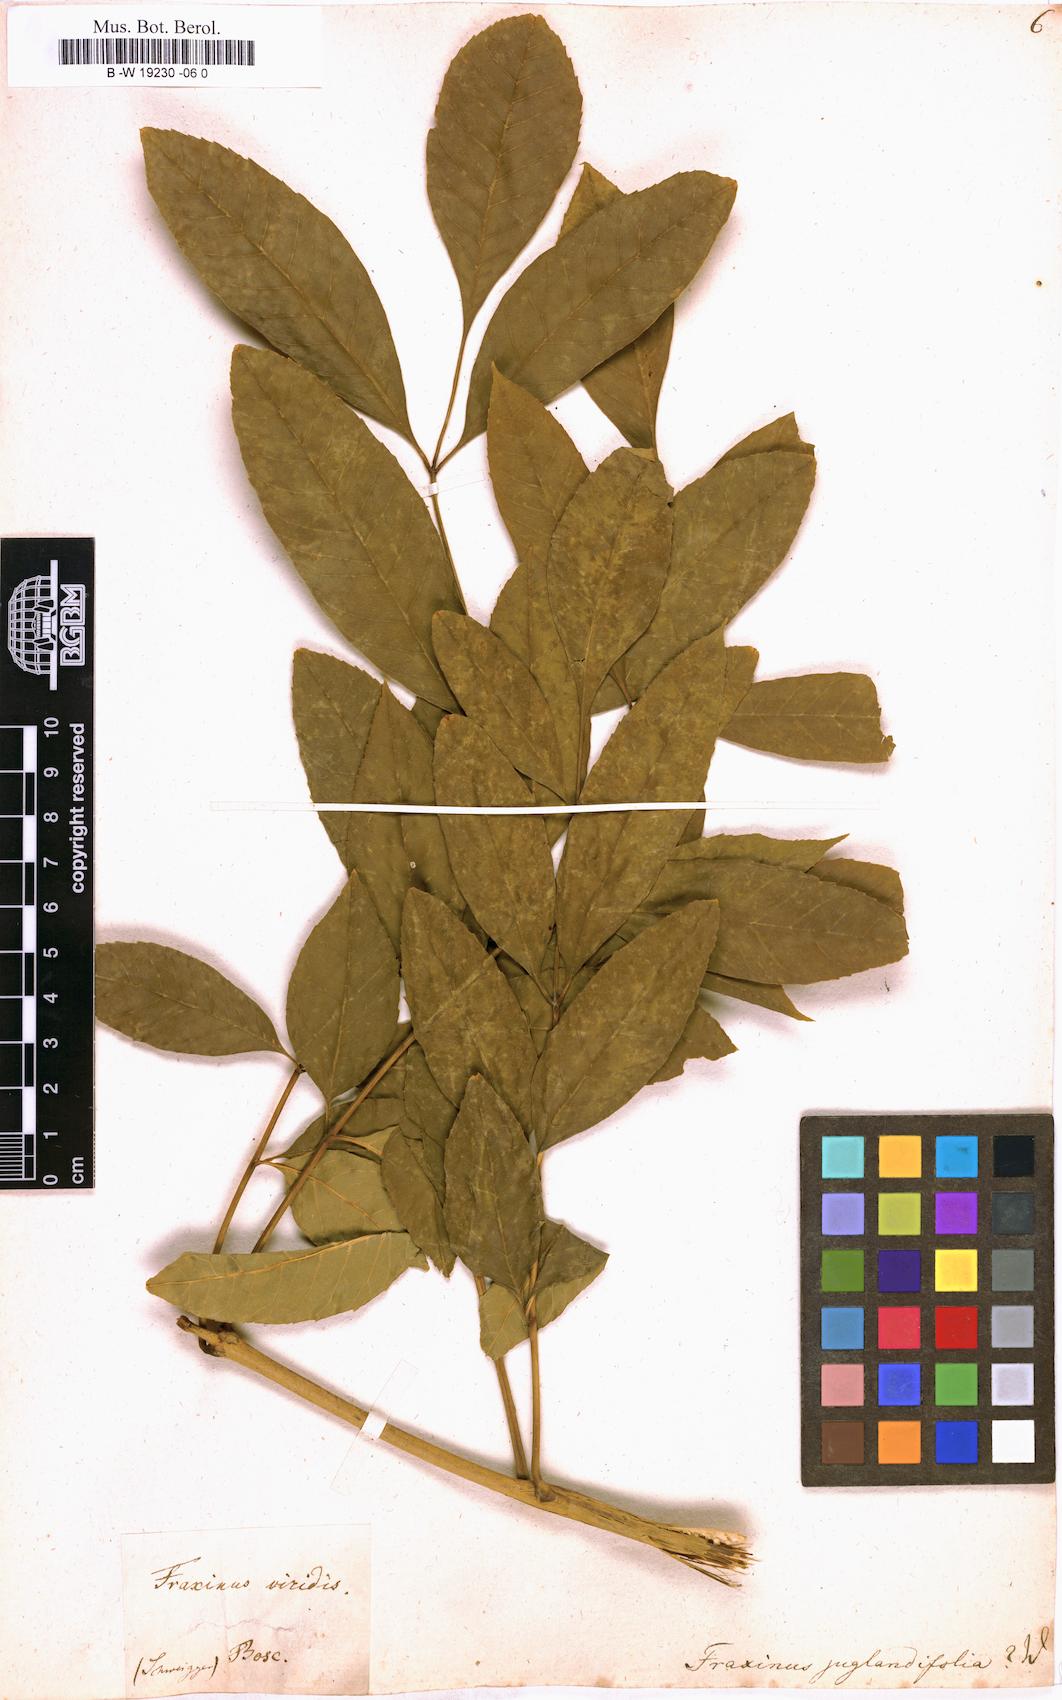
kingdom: Plantae
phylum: Tracheophyta
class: Magnoliopsida
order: Lamiales
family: Oleaceae
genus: Fraxinus
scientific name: Fraxinus americana
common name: White ash
